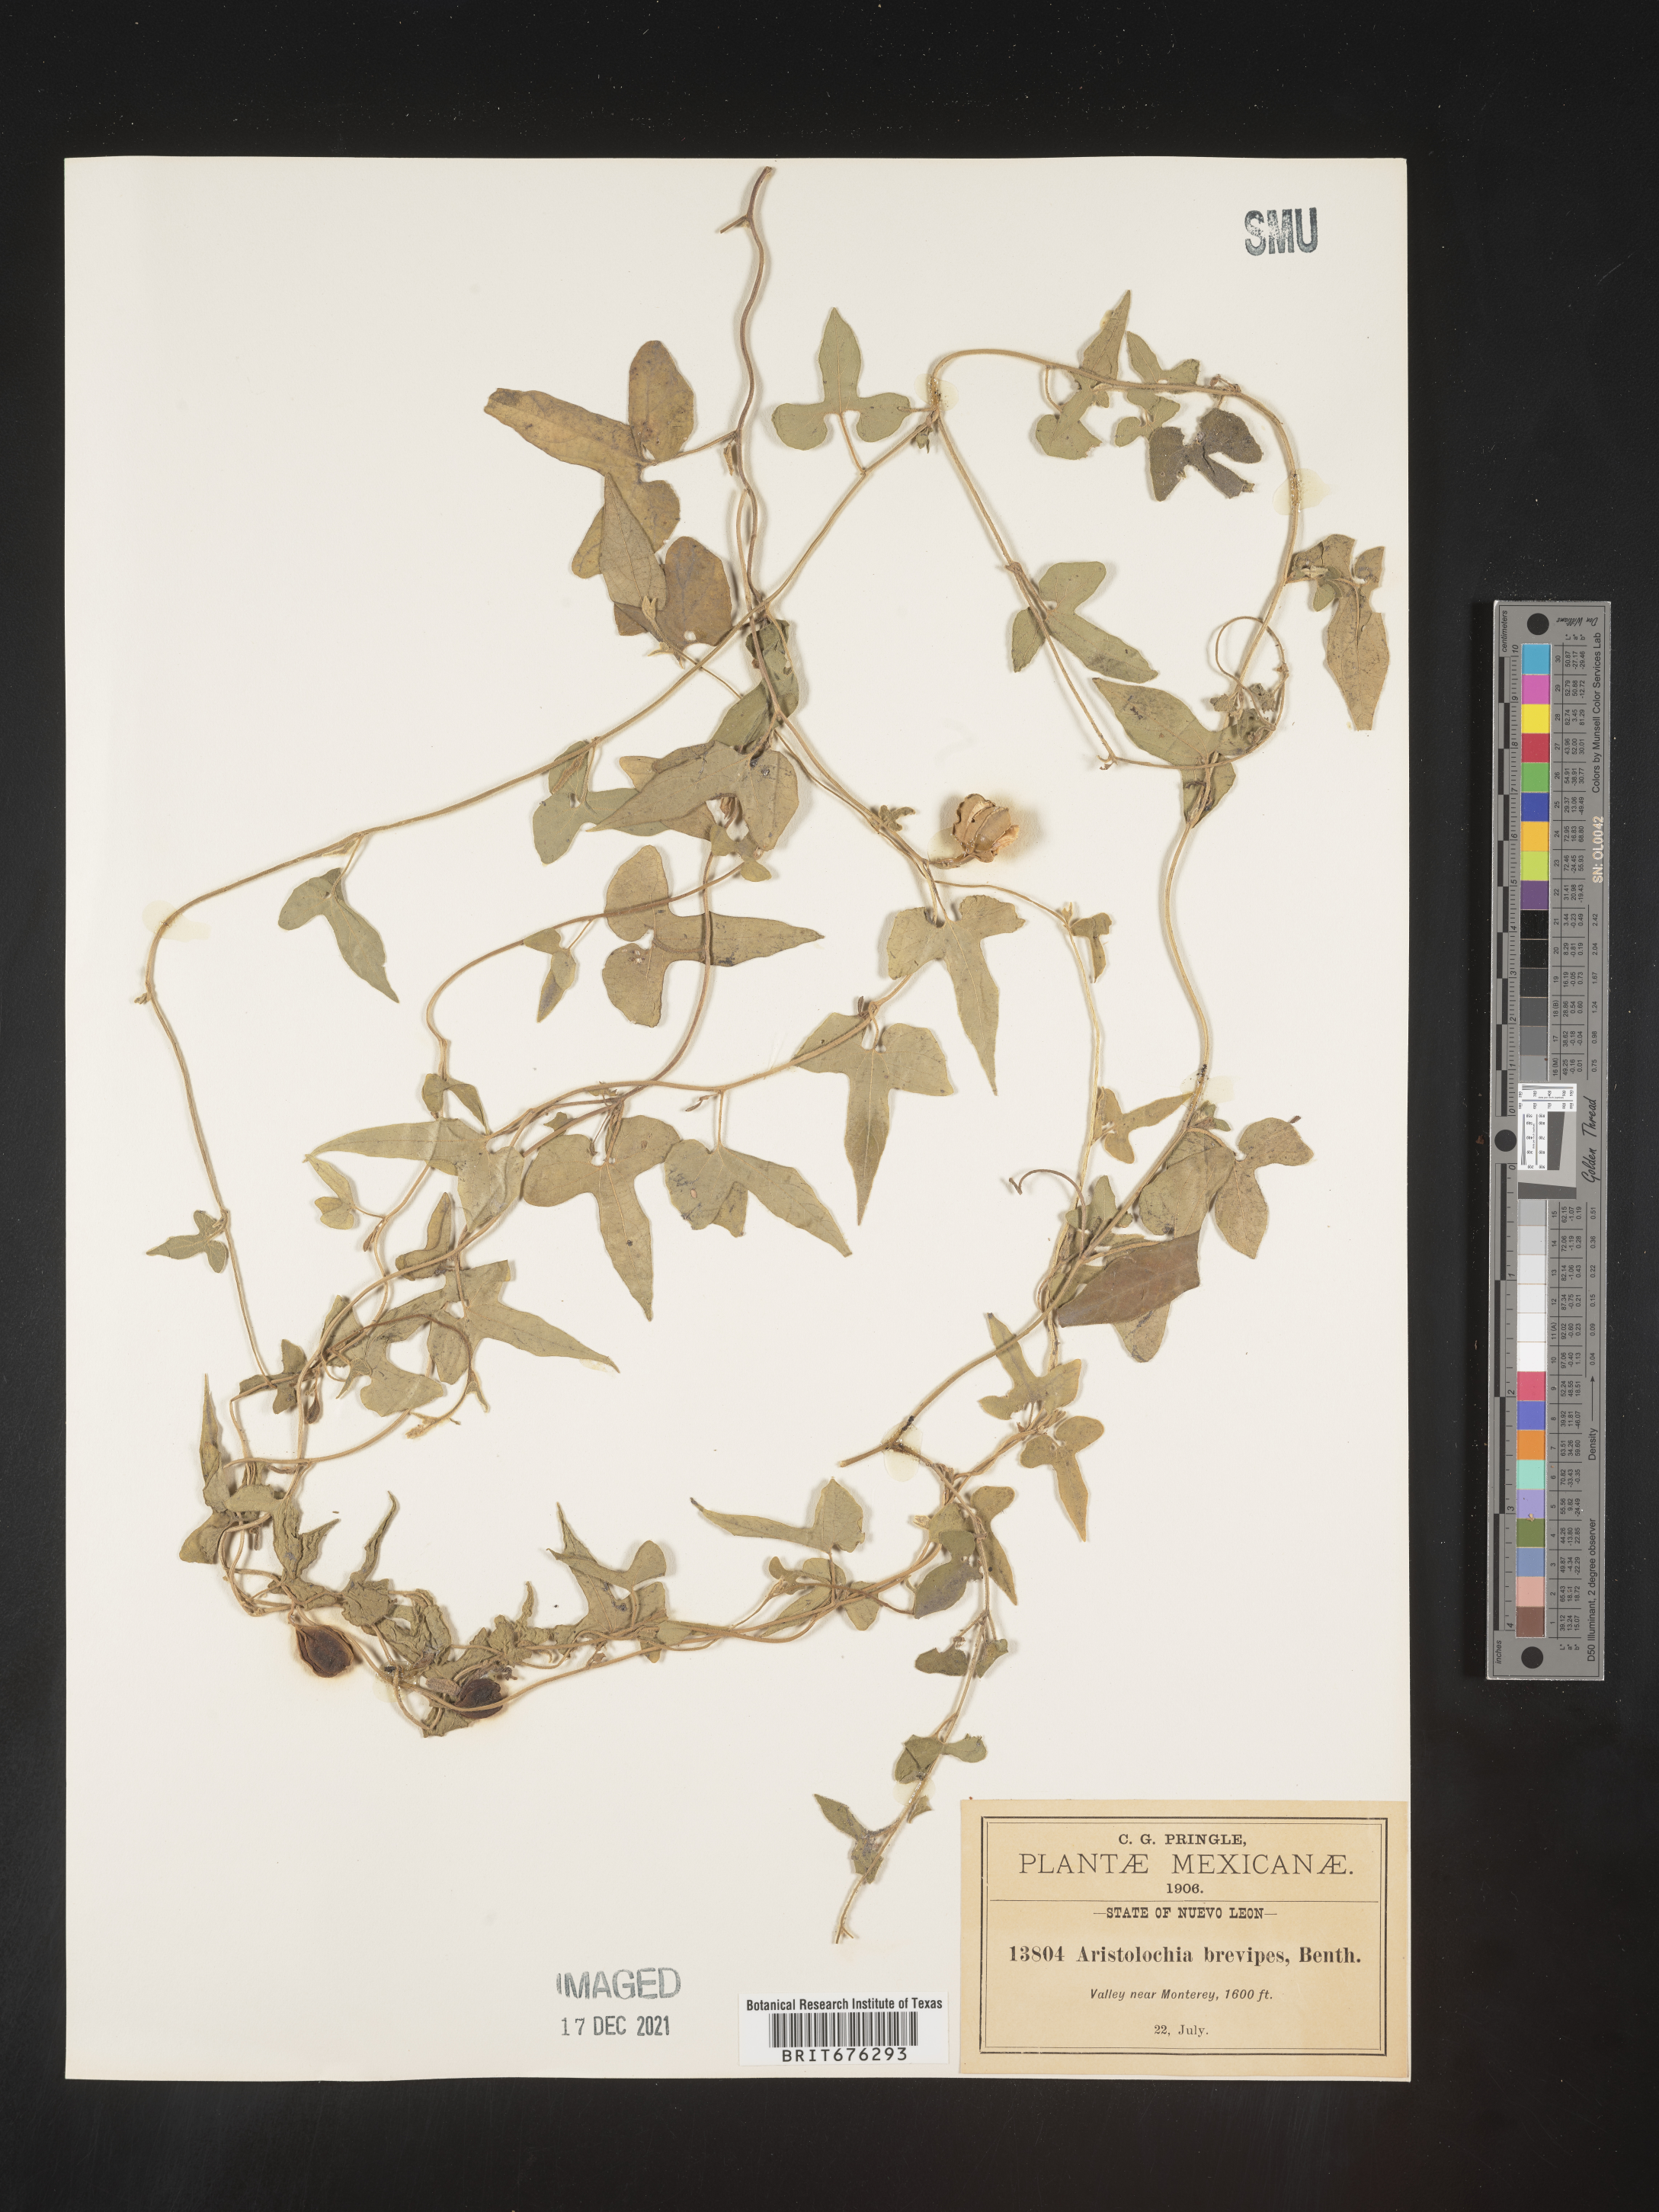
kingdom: Plantae
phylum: Tracheophyta
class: Magnoliopsida
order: Piperales
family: Aristolochiaceae
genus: Aristolochia
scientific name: Aristolochia
